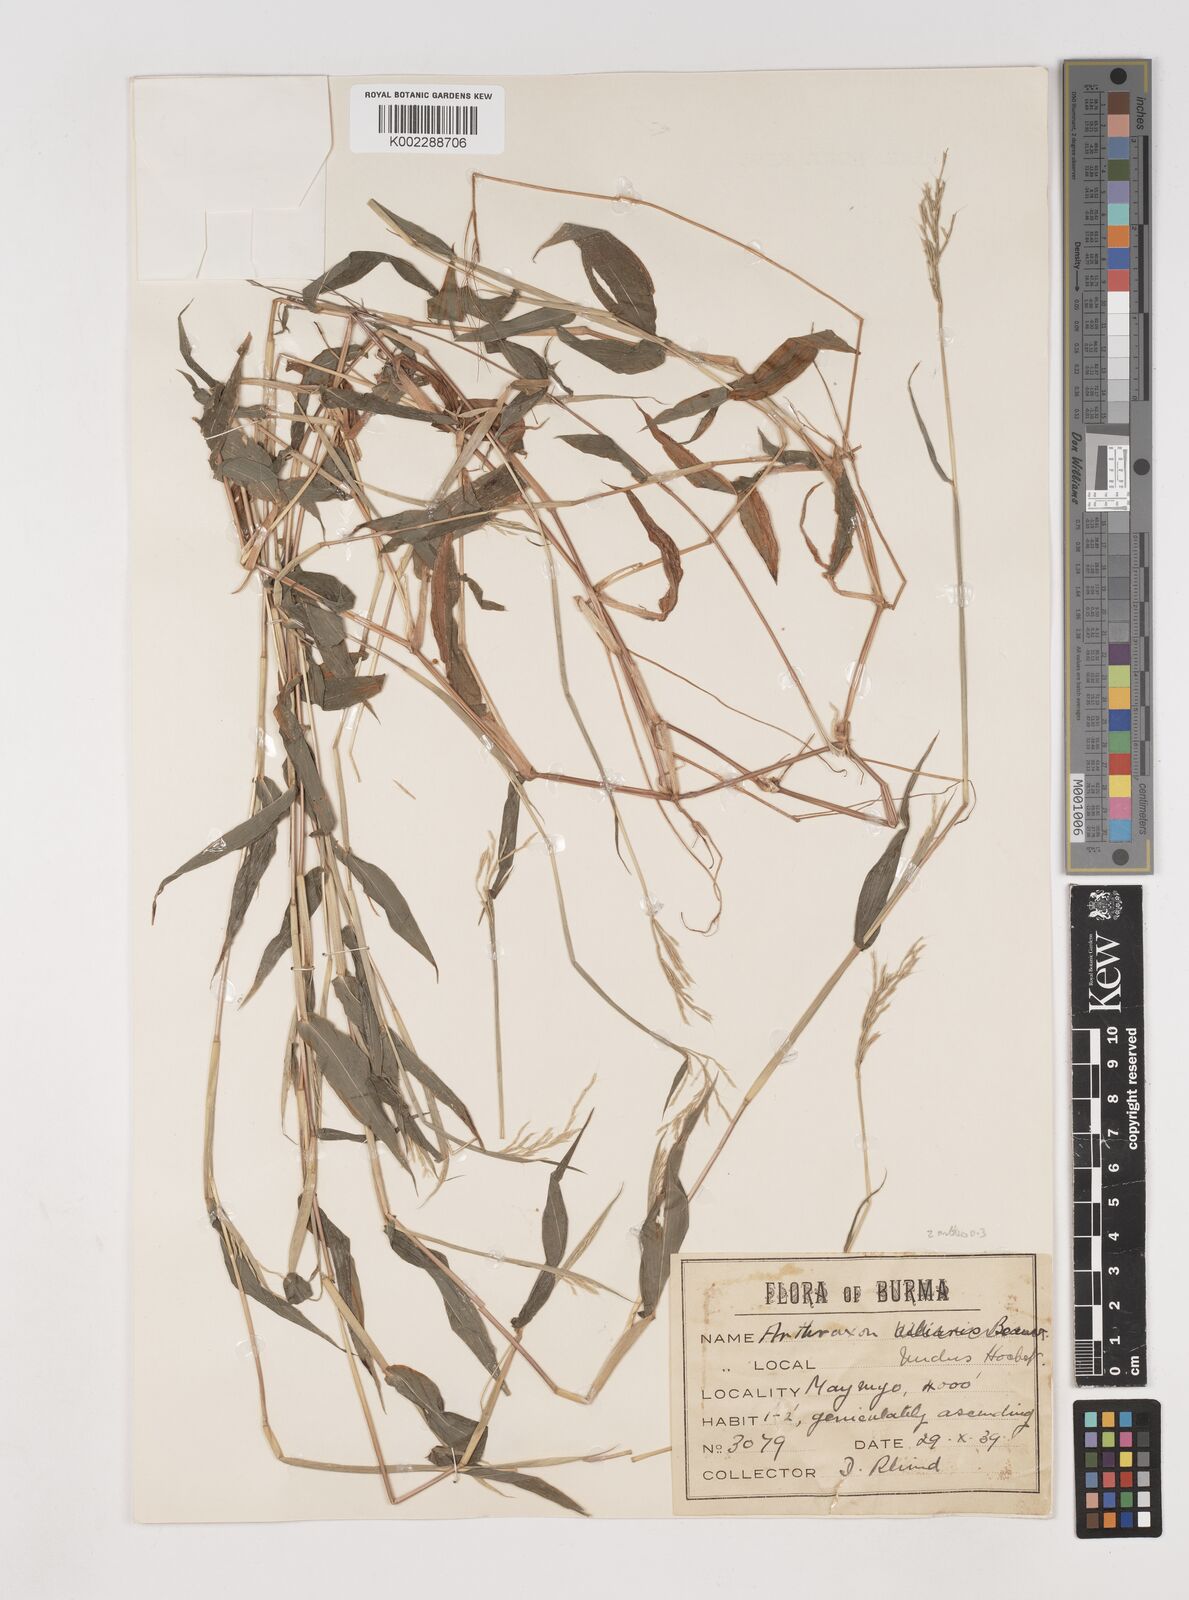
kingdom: Plantae
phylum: Tracheophyta
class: Liliopsida
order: Poales
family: Poaceae
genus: Arthraxon
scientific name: Arthraxon hispidus
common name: Small carpgrass
